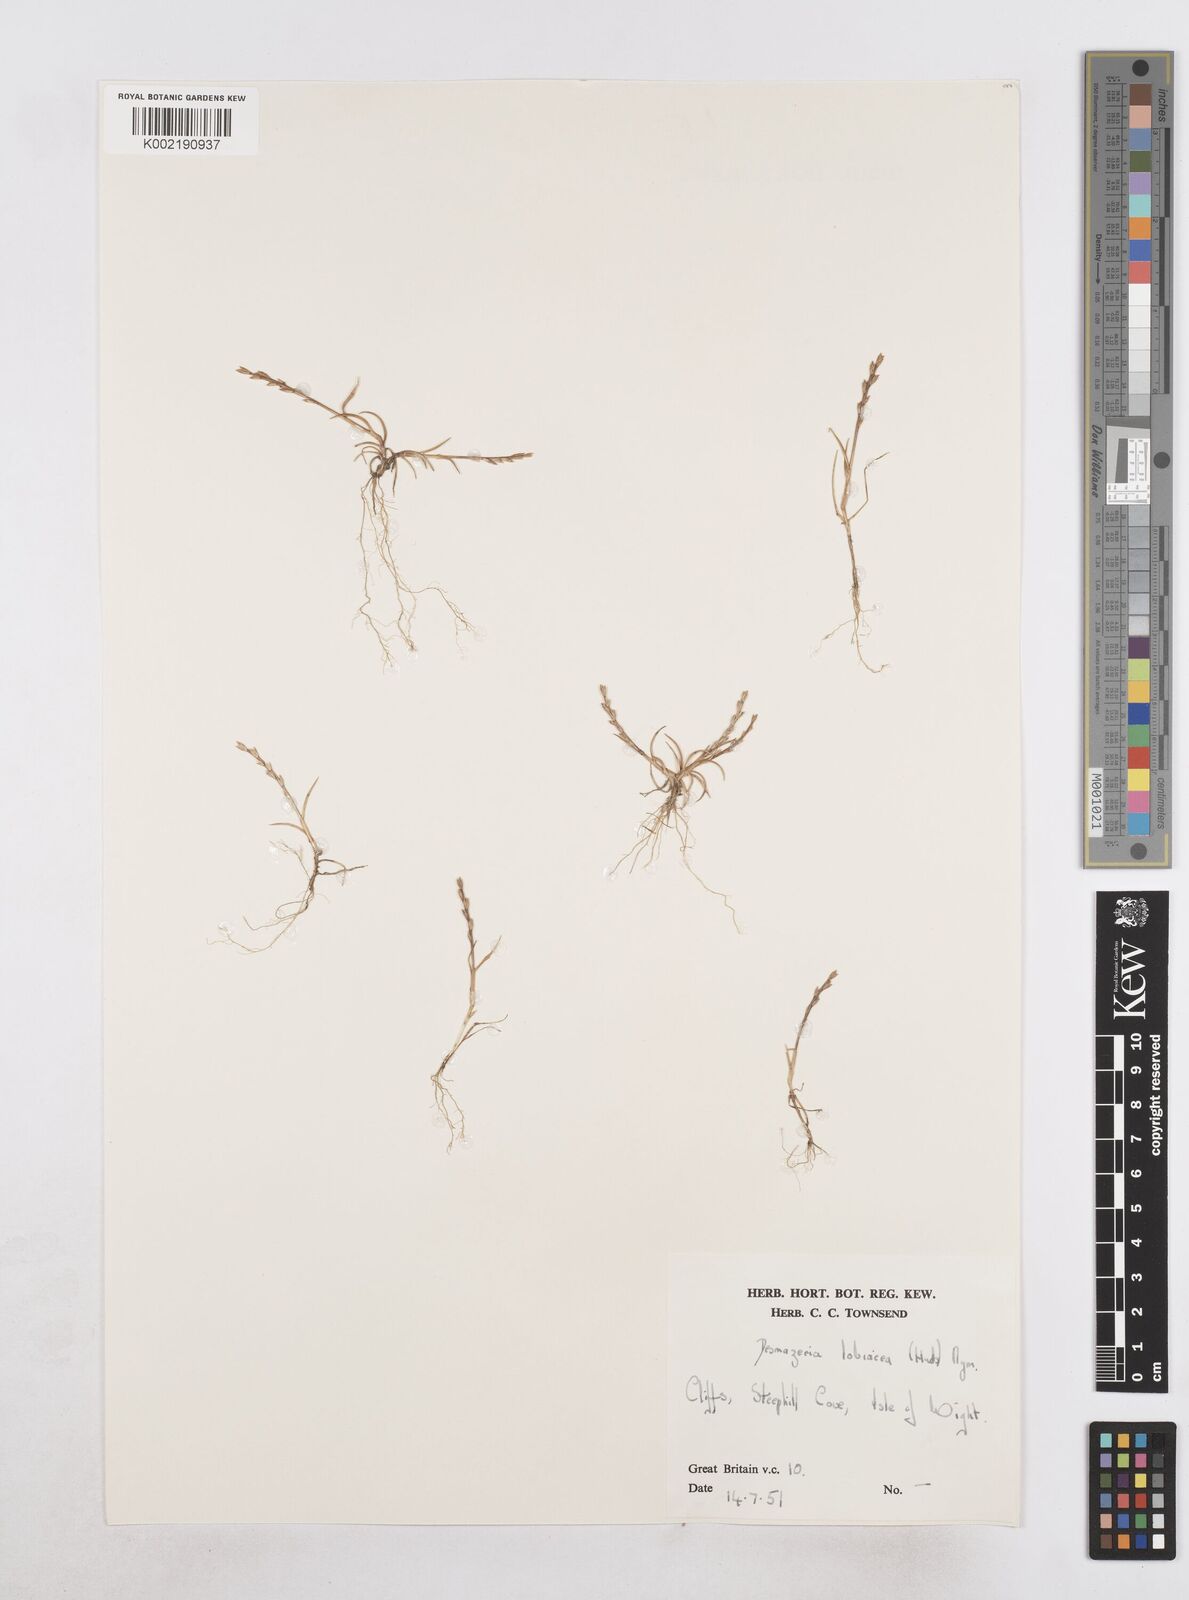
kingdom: Plantae
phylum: Tracheophyta
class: Liliopsida
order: Poales
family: Poaceae
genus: Catapodium
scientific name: Catapodium marinum
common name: Sea fern-grass
